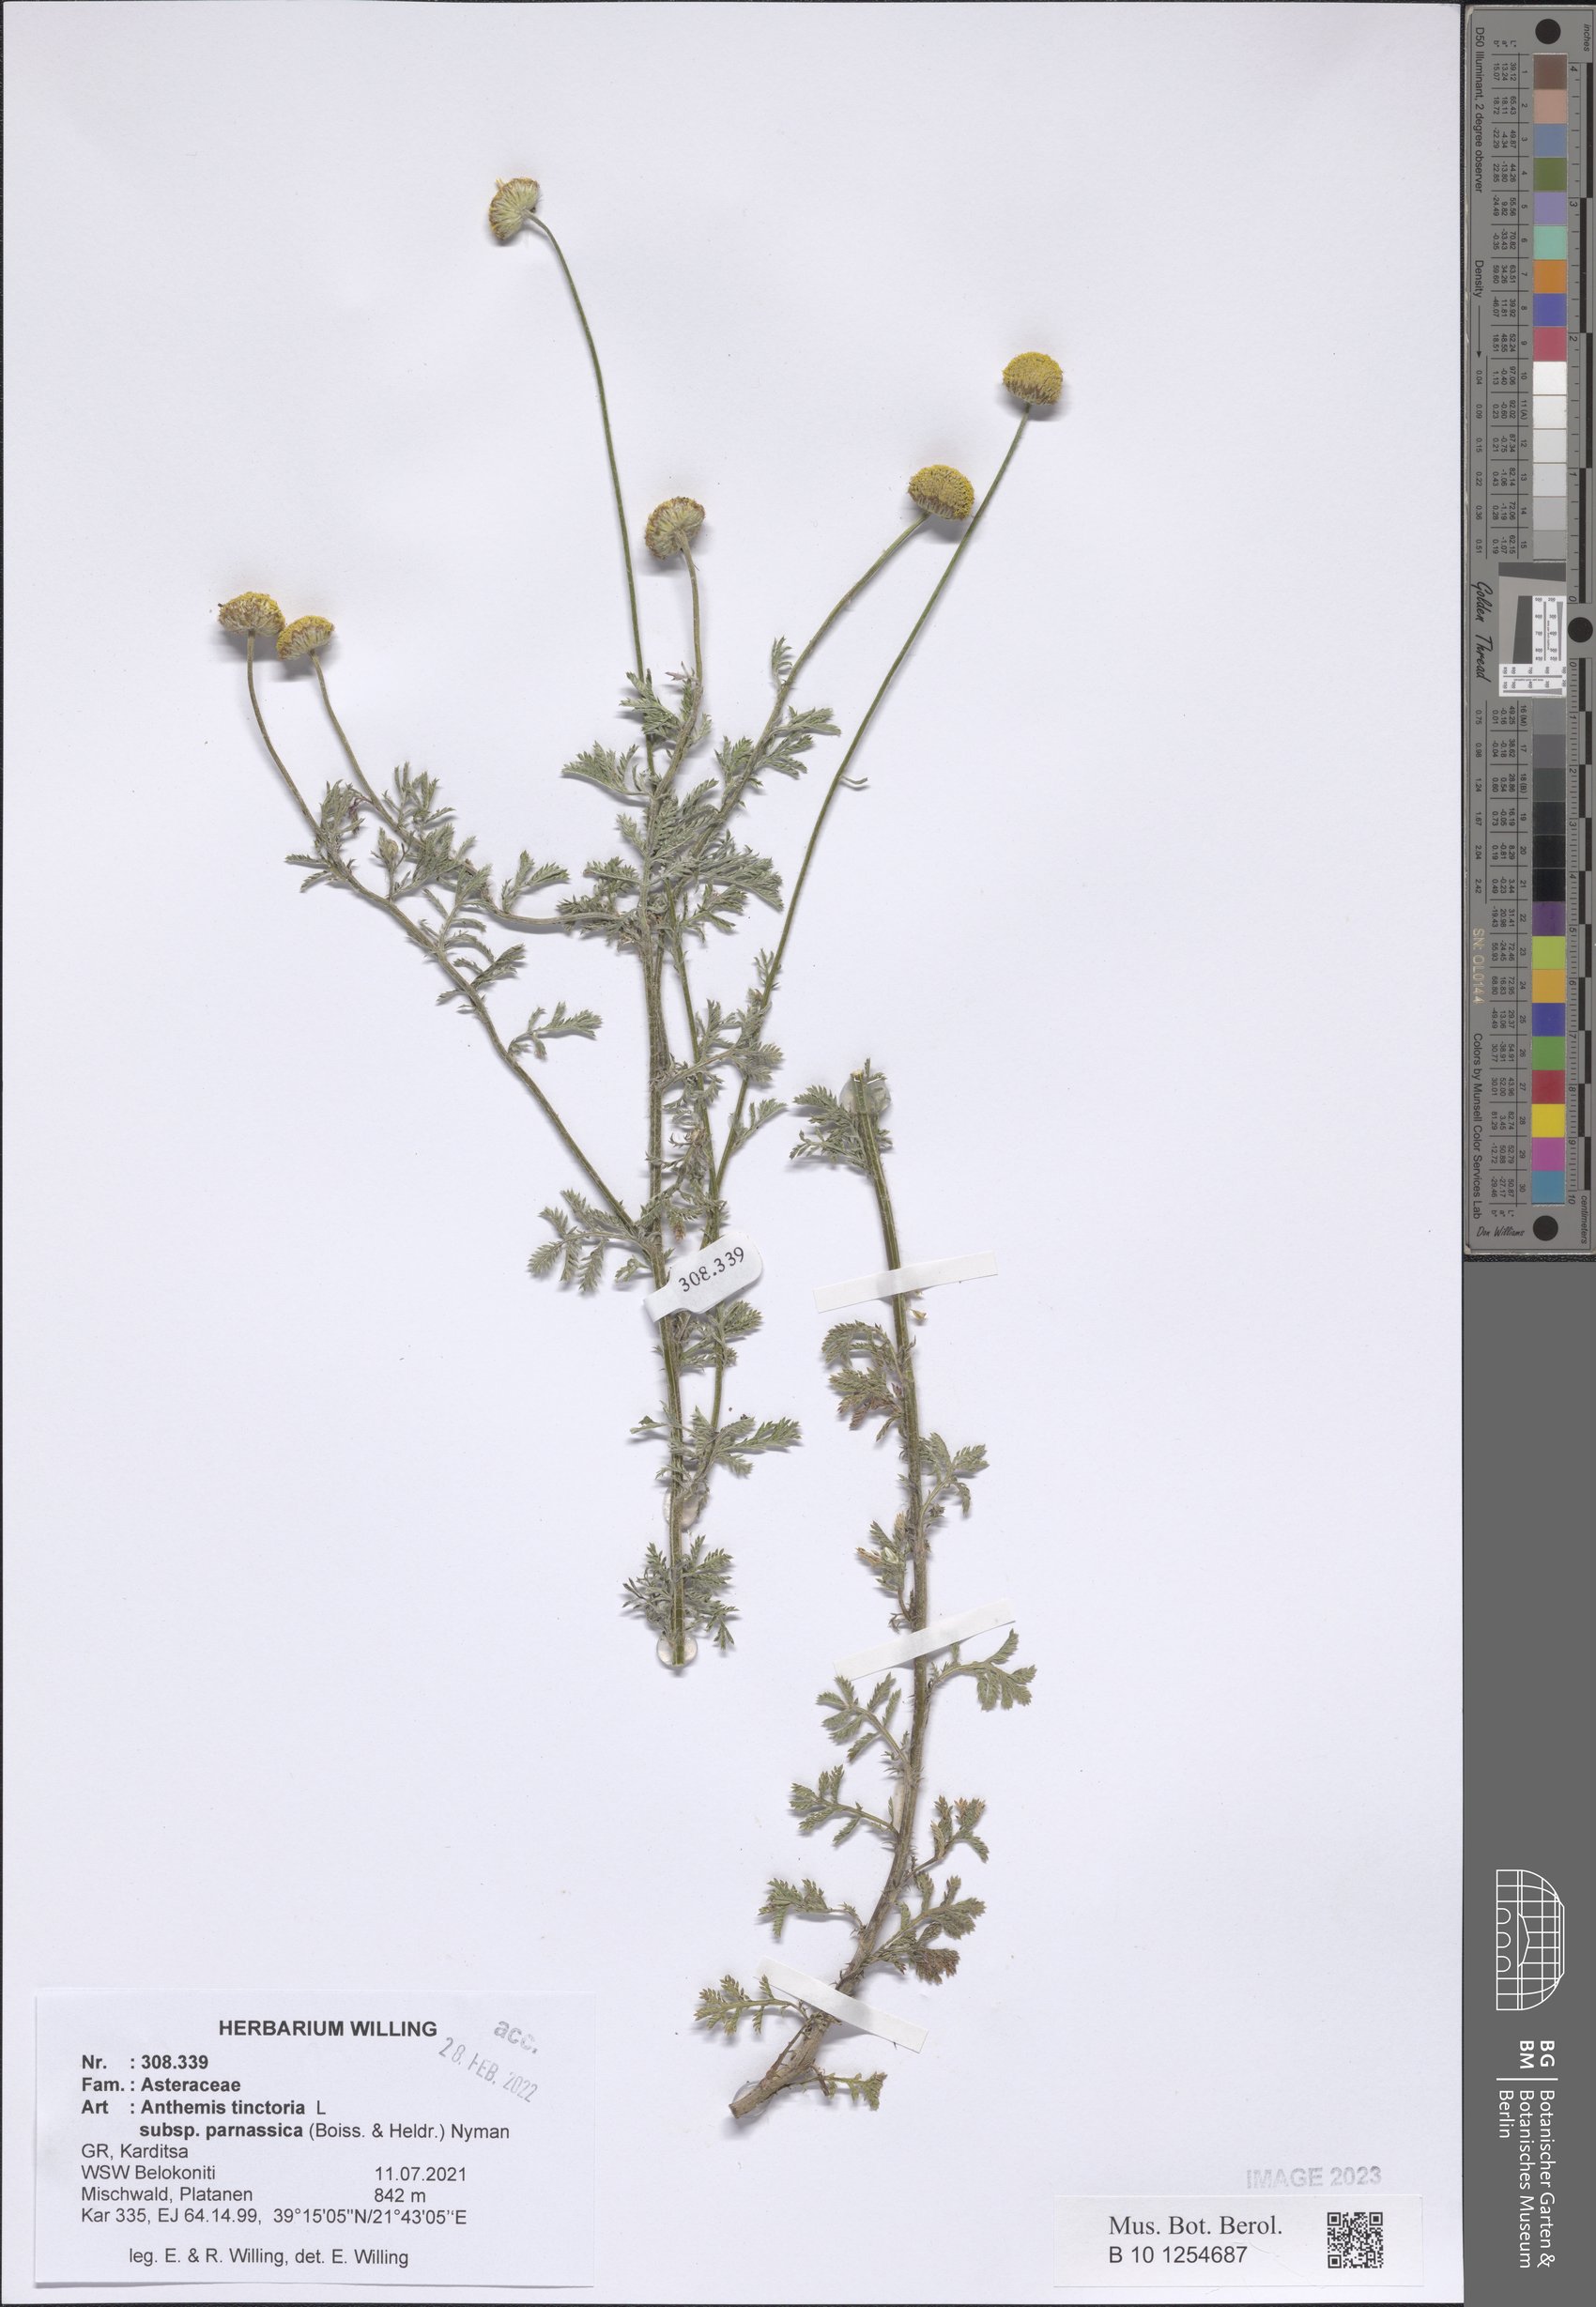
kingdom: Plantae
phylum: Tracheophyta
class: Magnoliopsida
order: Asterales
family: Asteraceae
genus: Cota
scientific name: Cota tinctoria
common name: Golden chamomile
